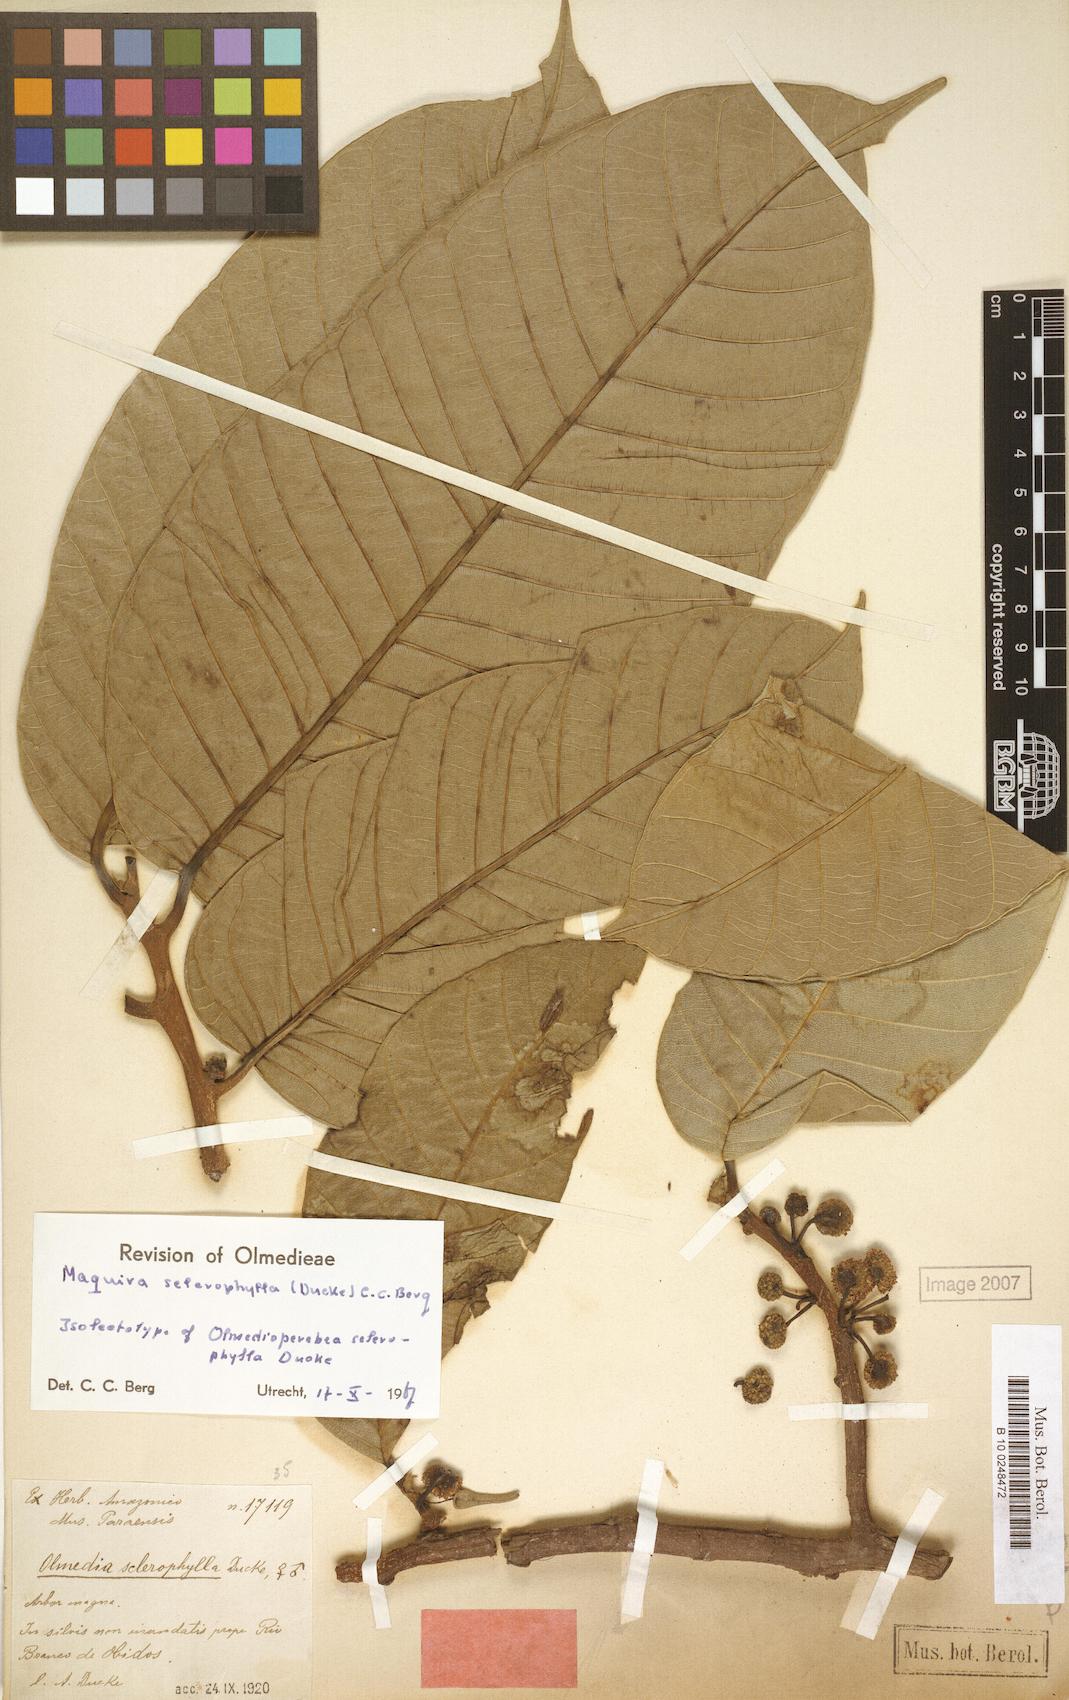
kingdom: Plantae
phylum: Tracheophyta
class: Magnoliopsida
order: Rosales
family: Moraceae
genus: Maquira
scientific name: Maquira sclerophylla
